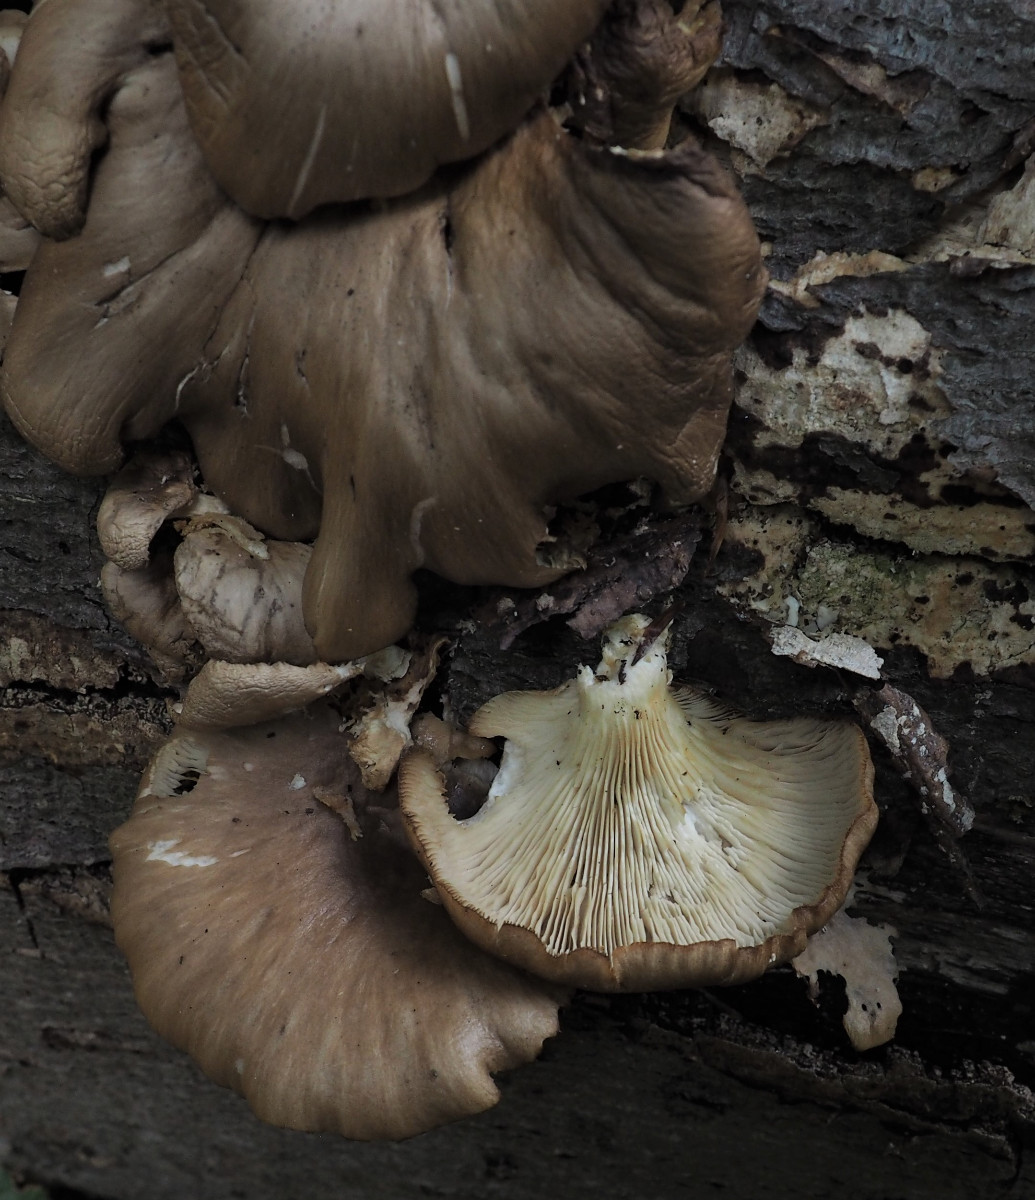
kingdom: Fungi
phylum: Basidiomycota
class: Agaricomycetes
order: Agaricales
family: Pleurotaceae
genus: Pleurotus
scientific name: Pleurotus pulmonarius
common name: sommer-østershat
